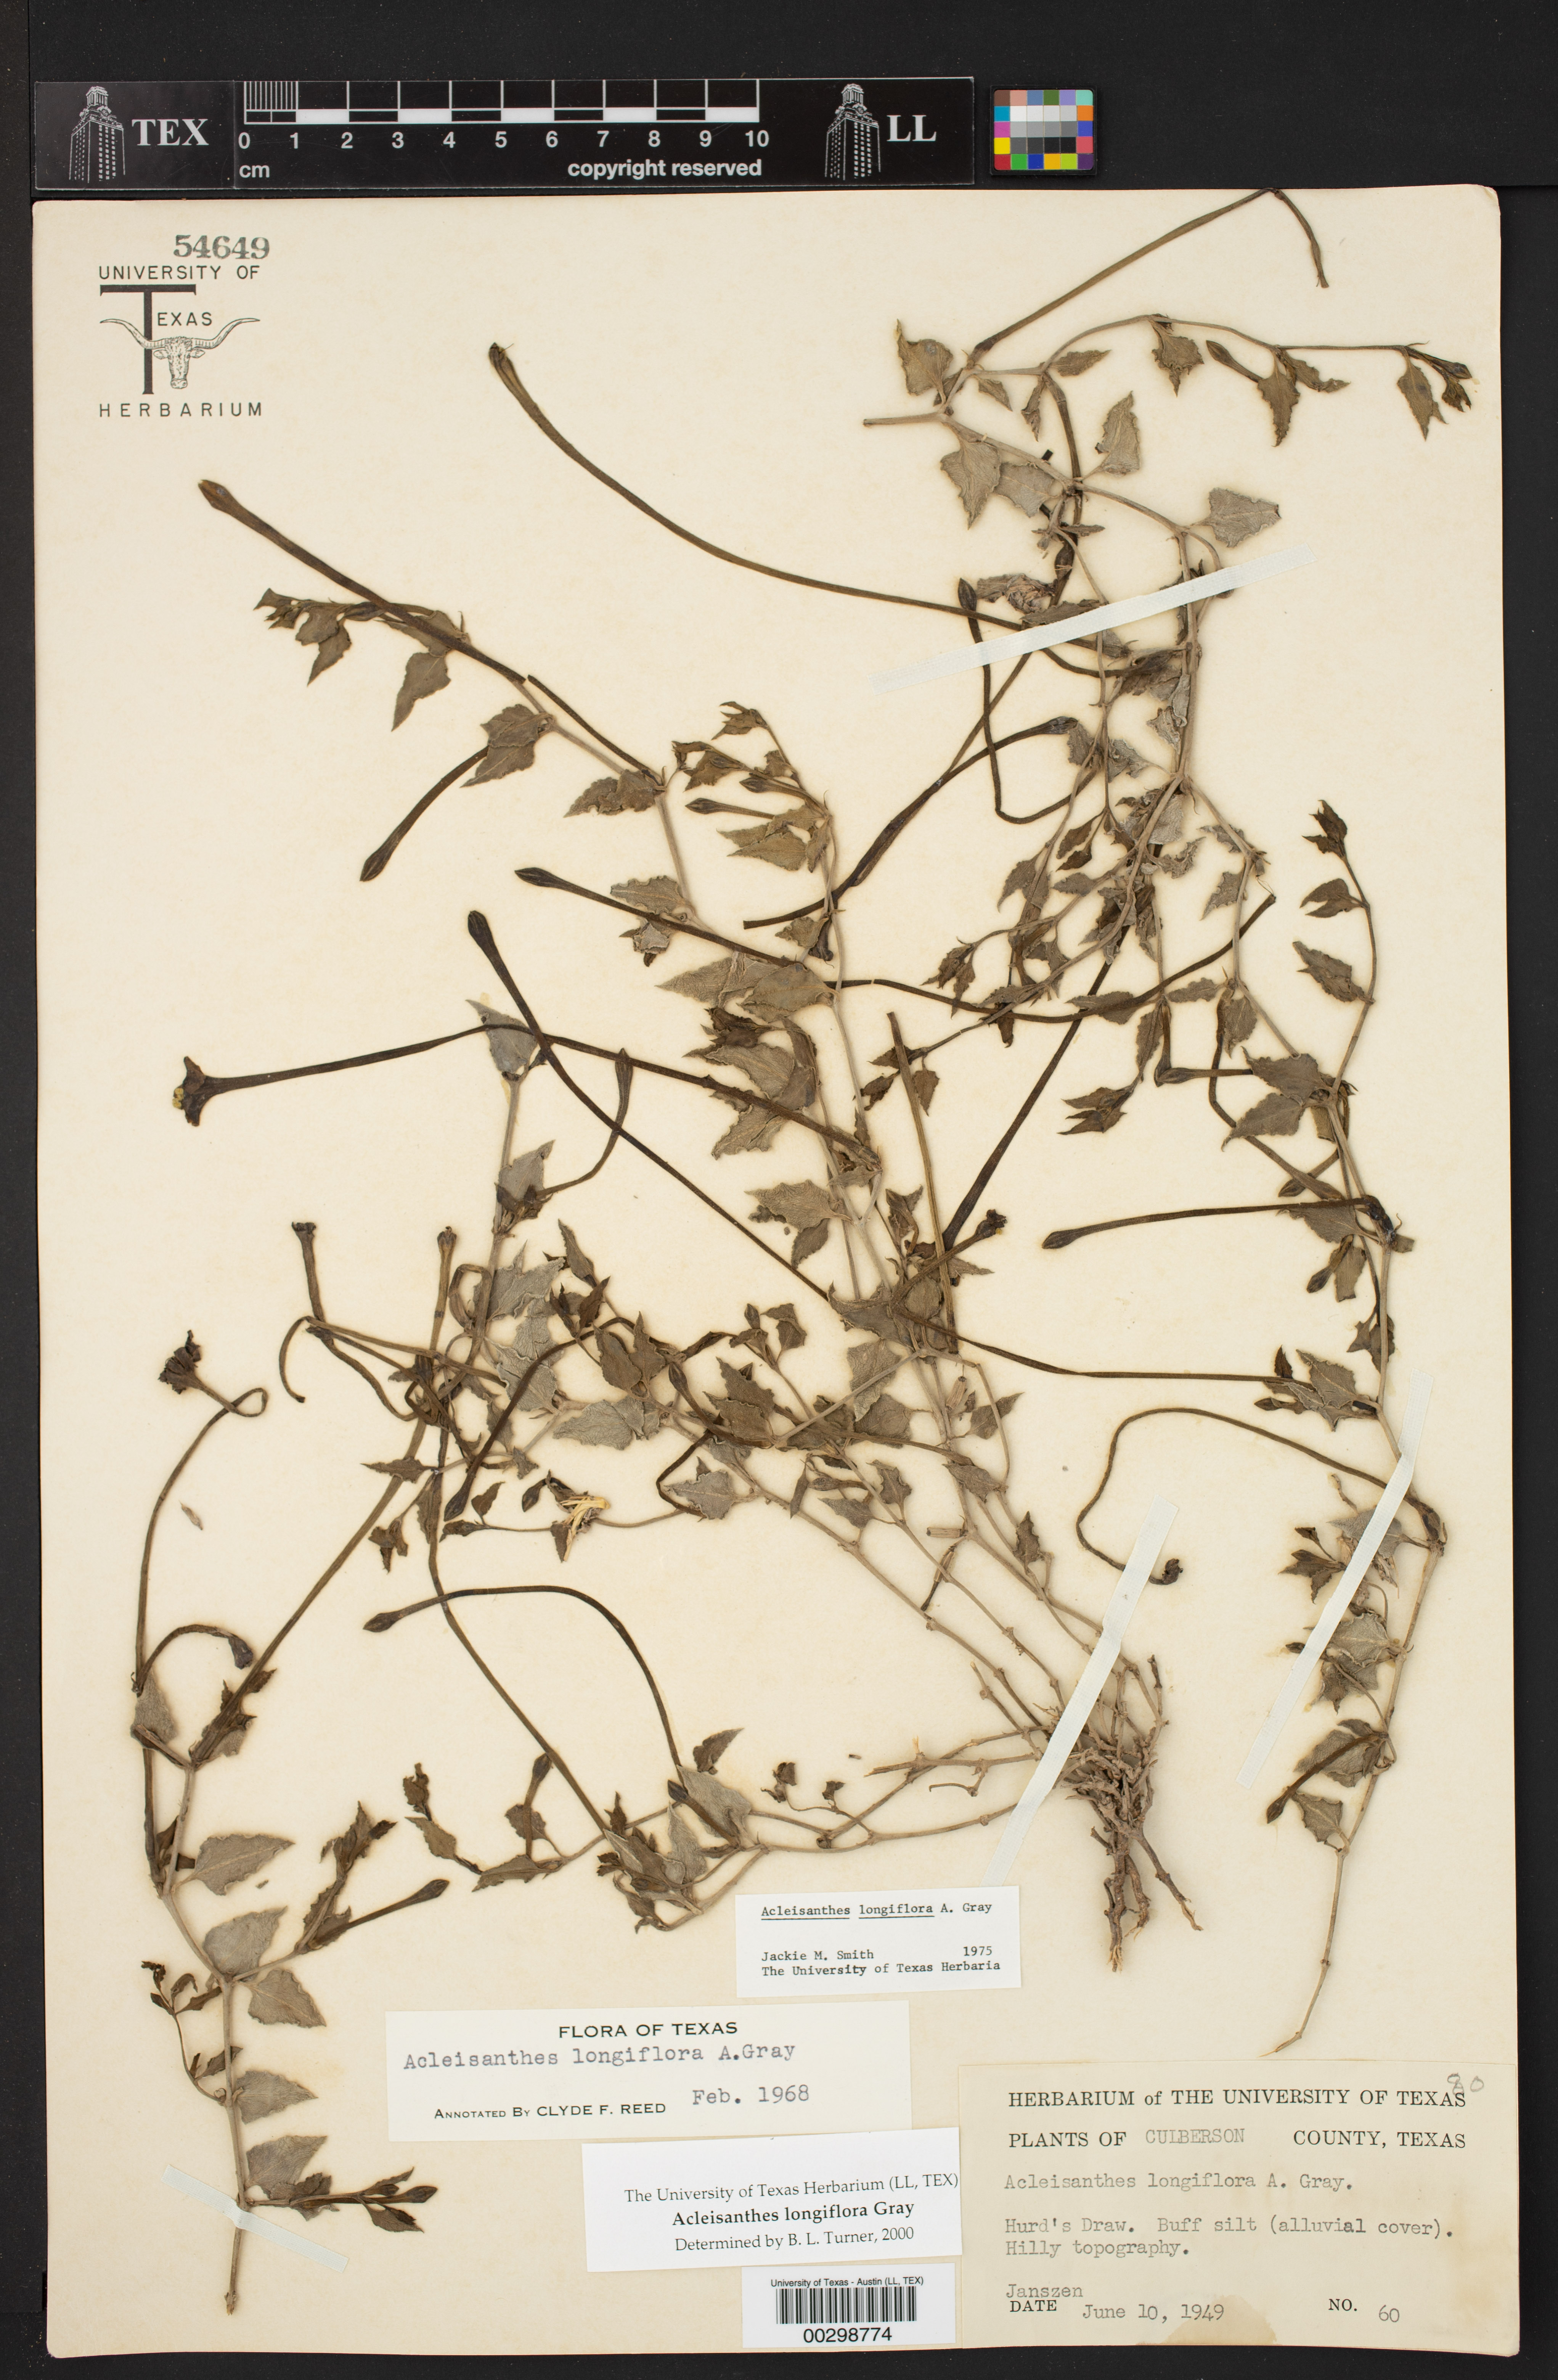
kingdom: Plantae
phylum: Tracheophyta
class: Magnoliopsida
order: Caryophyllales
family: Nyctaginaceae
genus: Acleisanthes
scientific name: Acleisanthes longiflora
